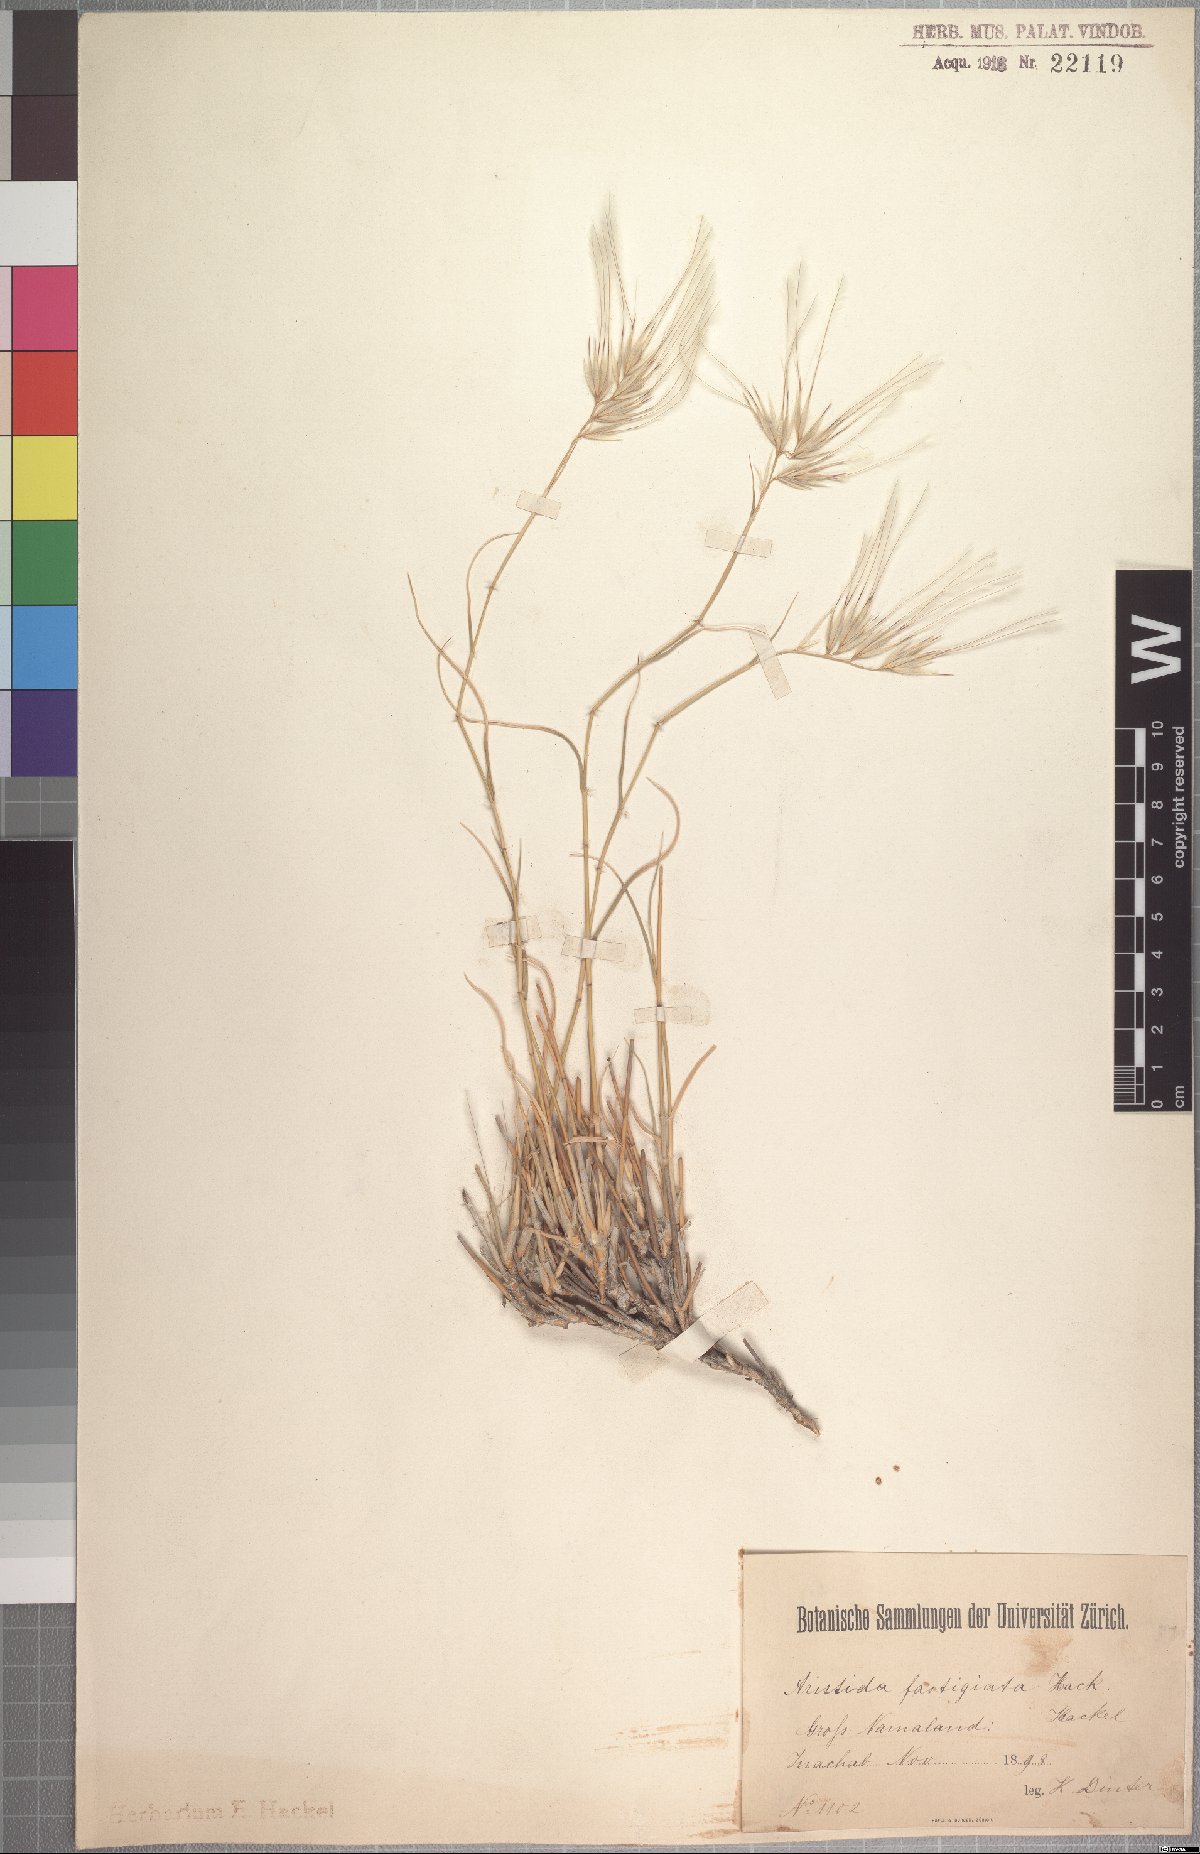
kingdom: Plantae
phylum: Tracheophyta
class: Liliopsida
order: Poales
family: Poaceae
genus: Stipagrostis
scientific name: Stipagrostis fastigiata
